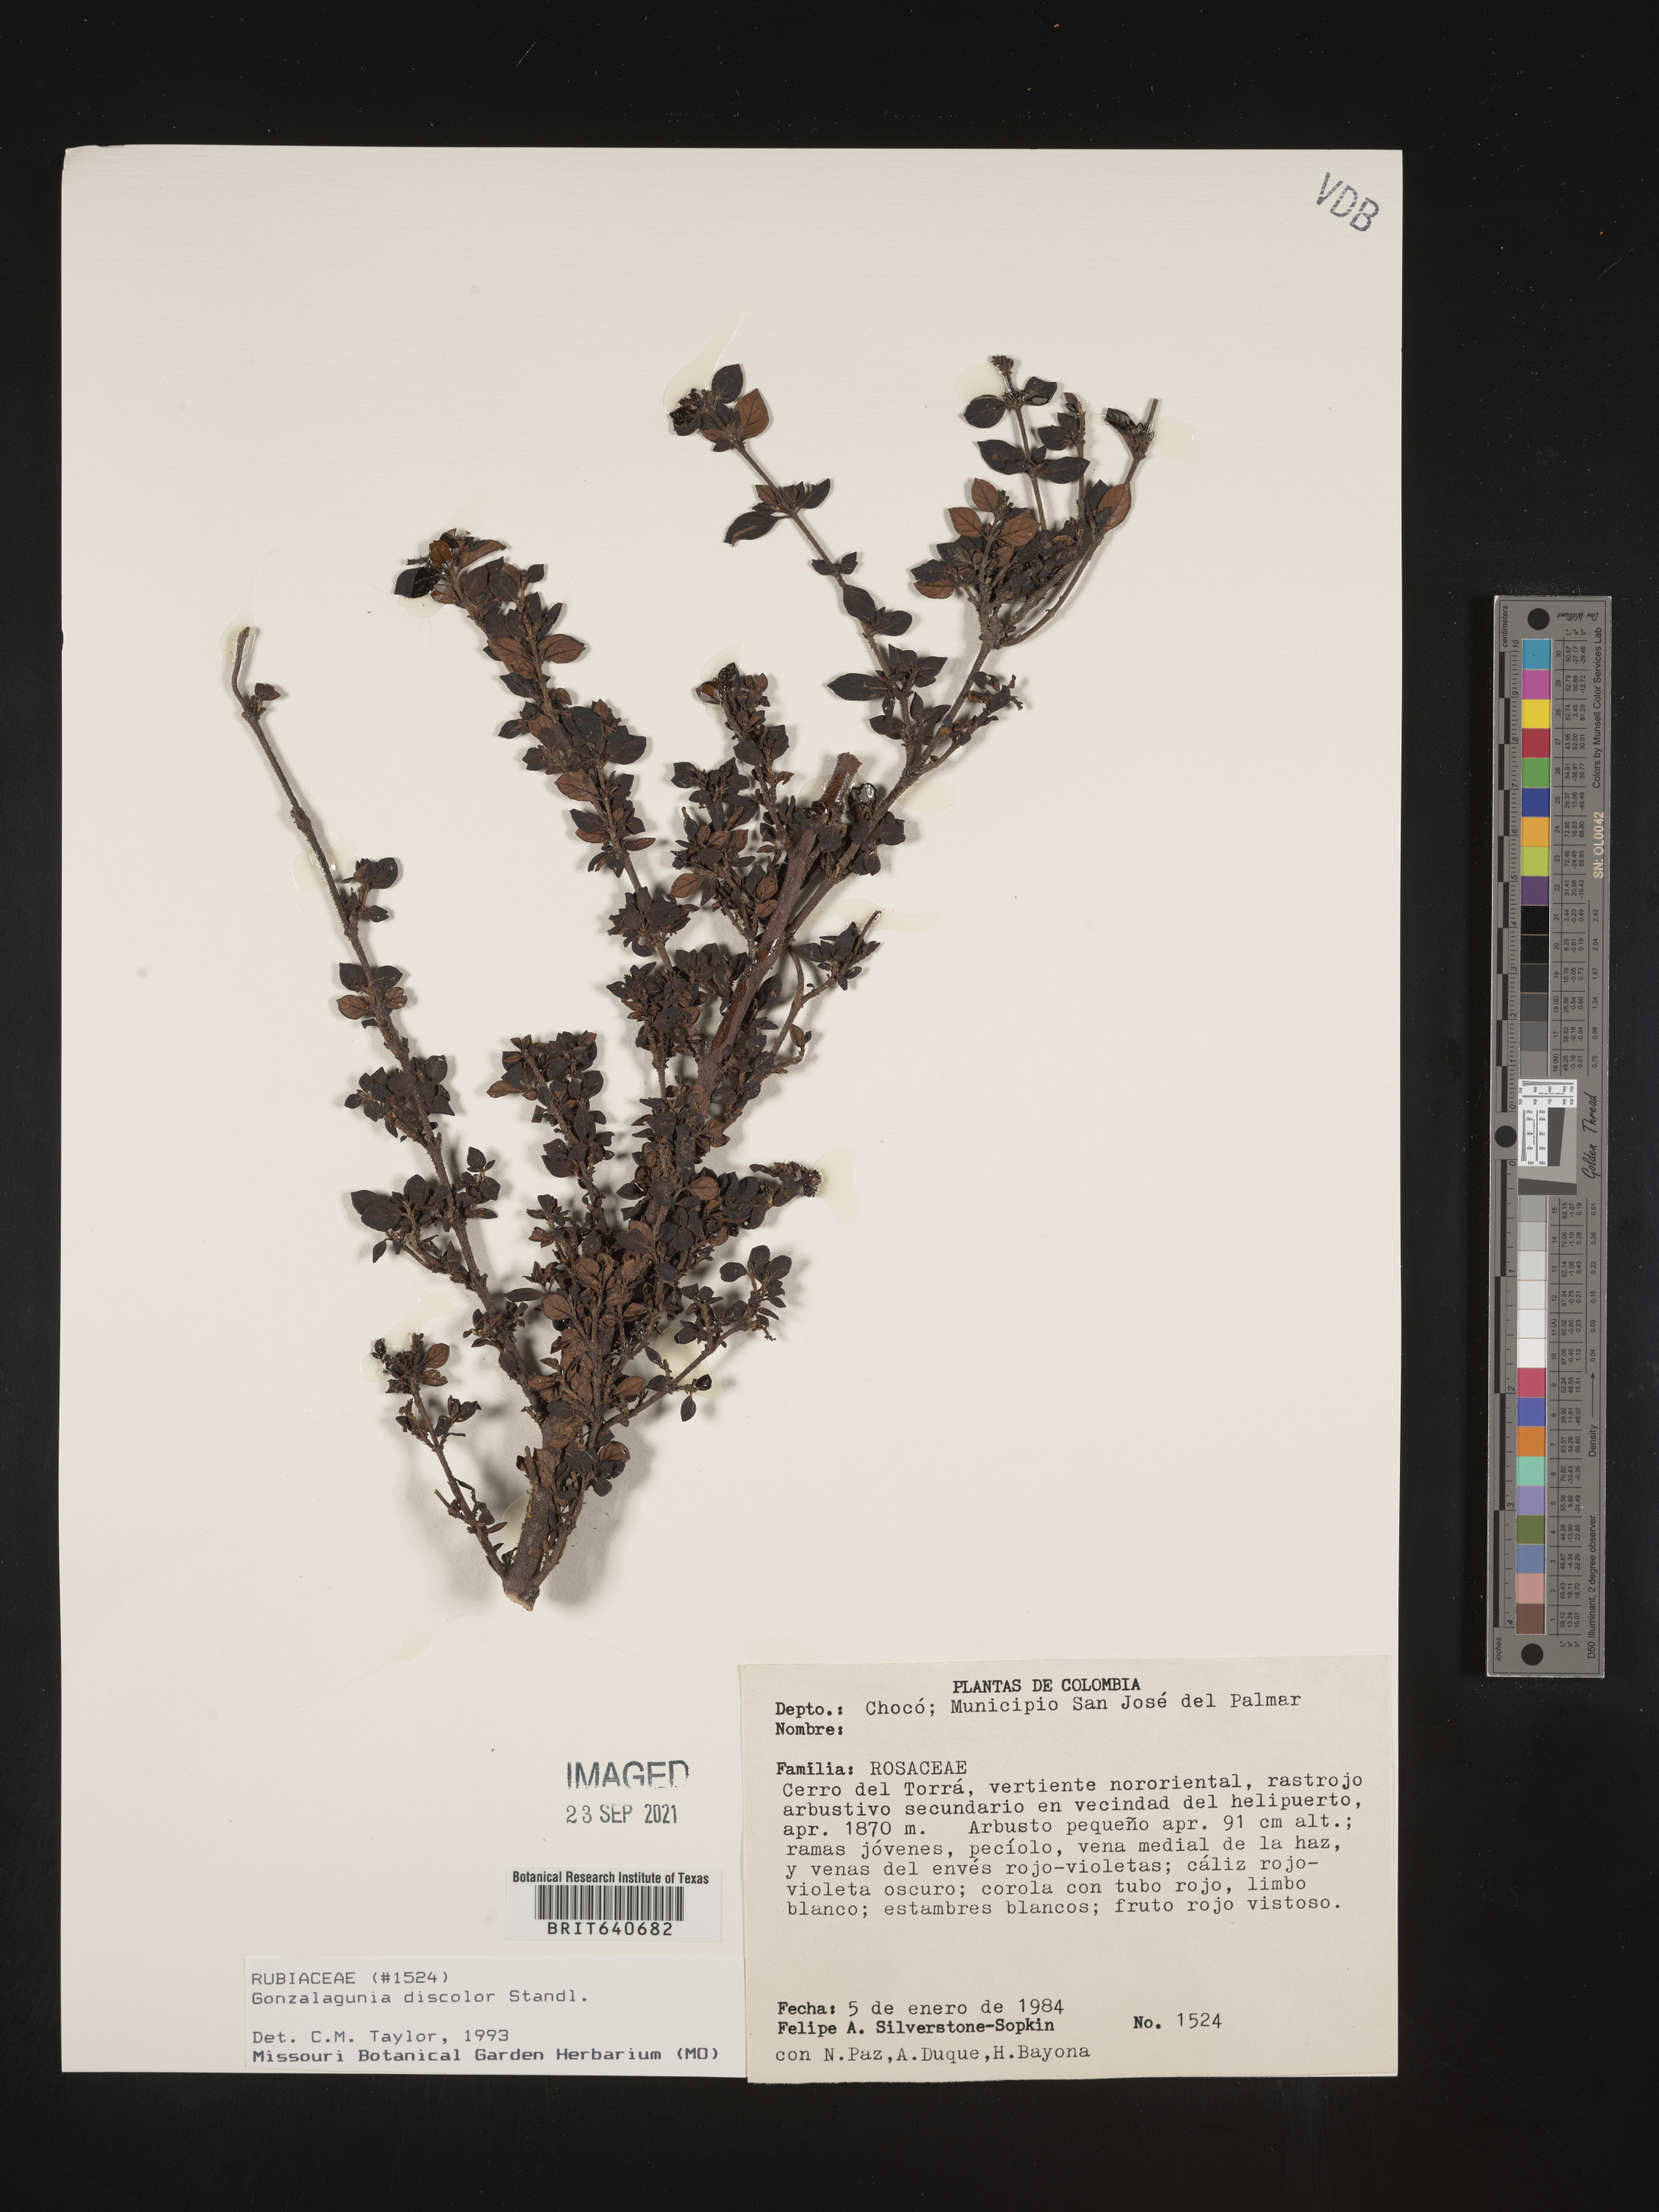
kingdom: Plantae
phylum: Tracheophyta
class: Magnoliopsida
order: Gentianales
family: Rubiaceae
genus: Gonzalagunia
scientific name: Gonzalagunia
